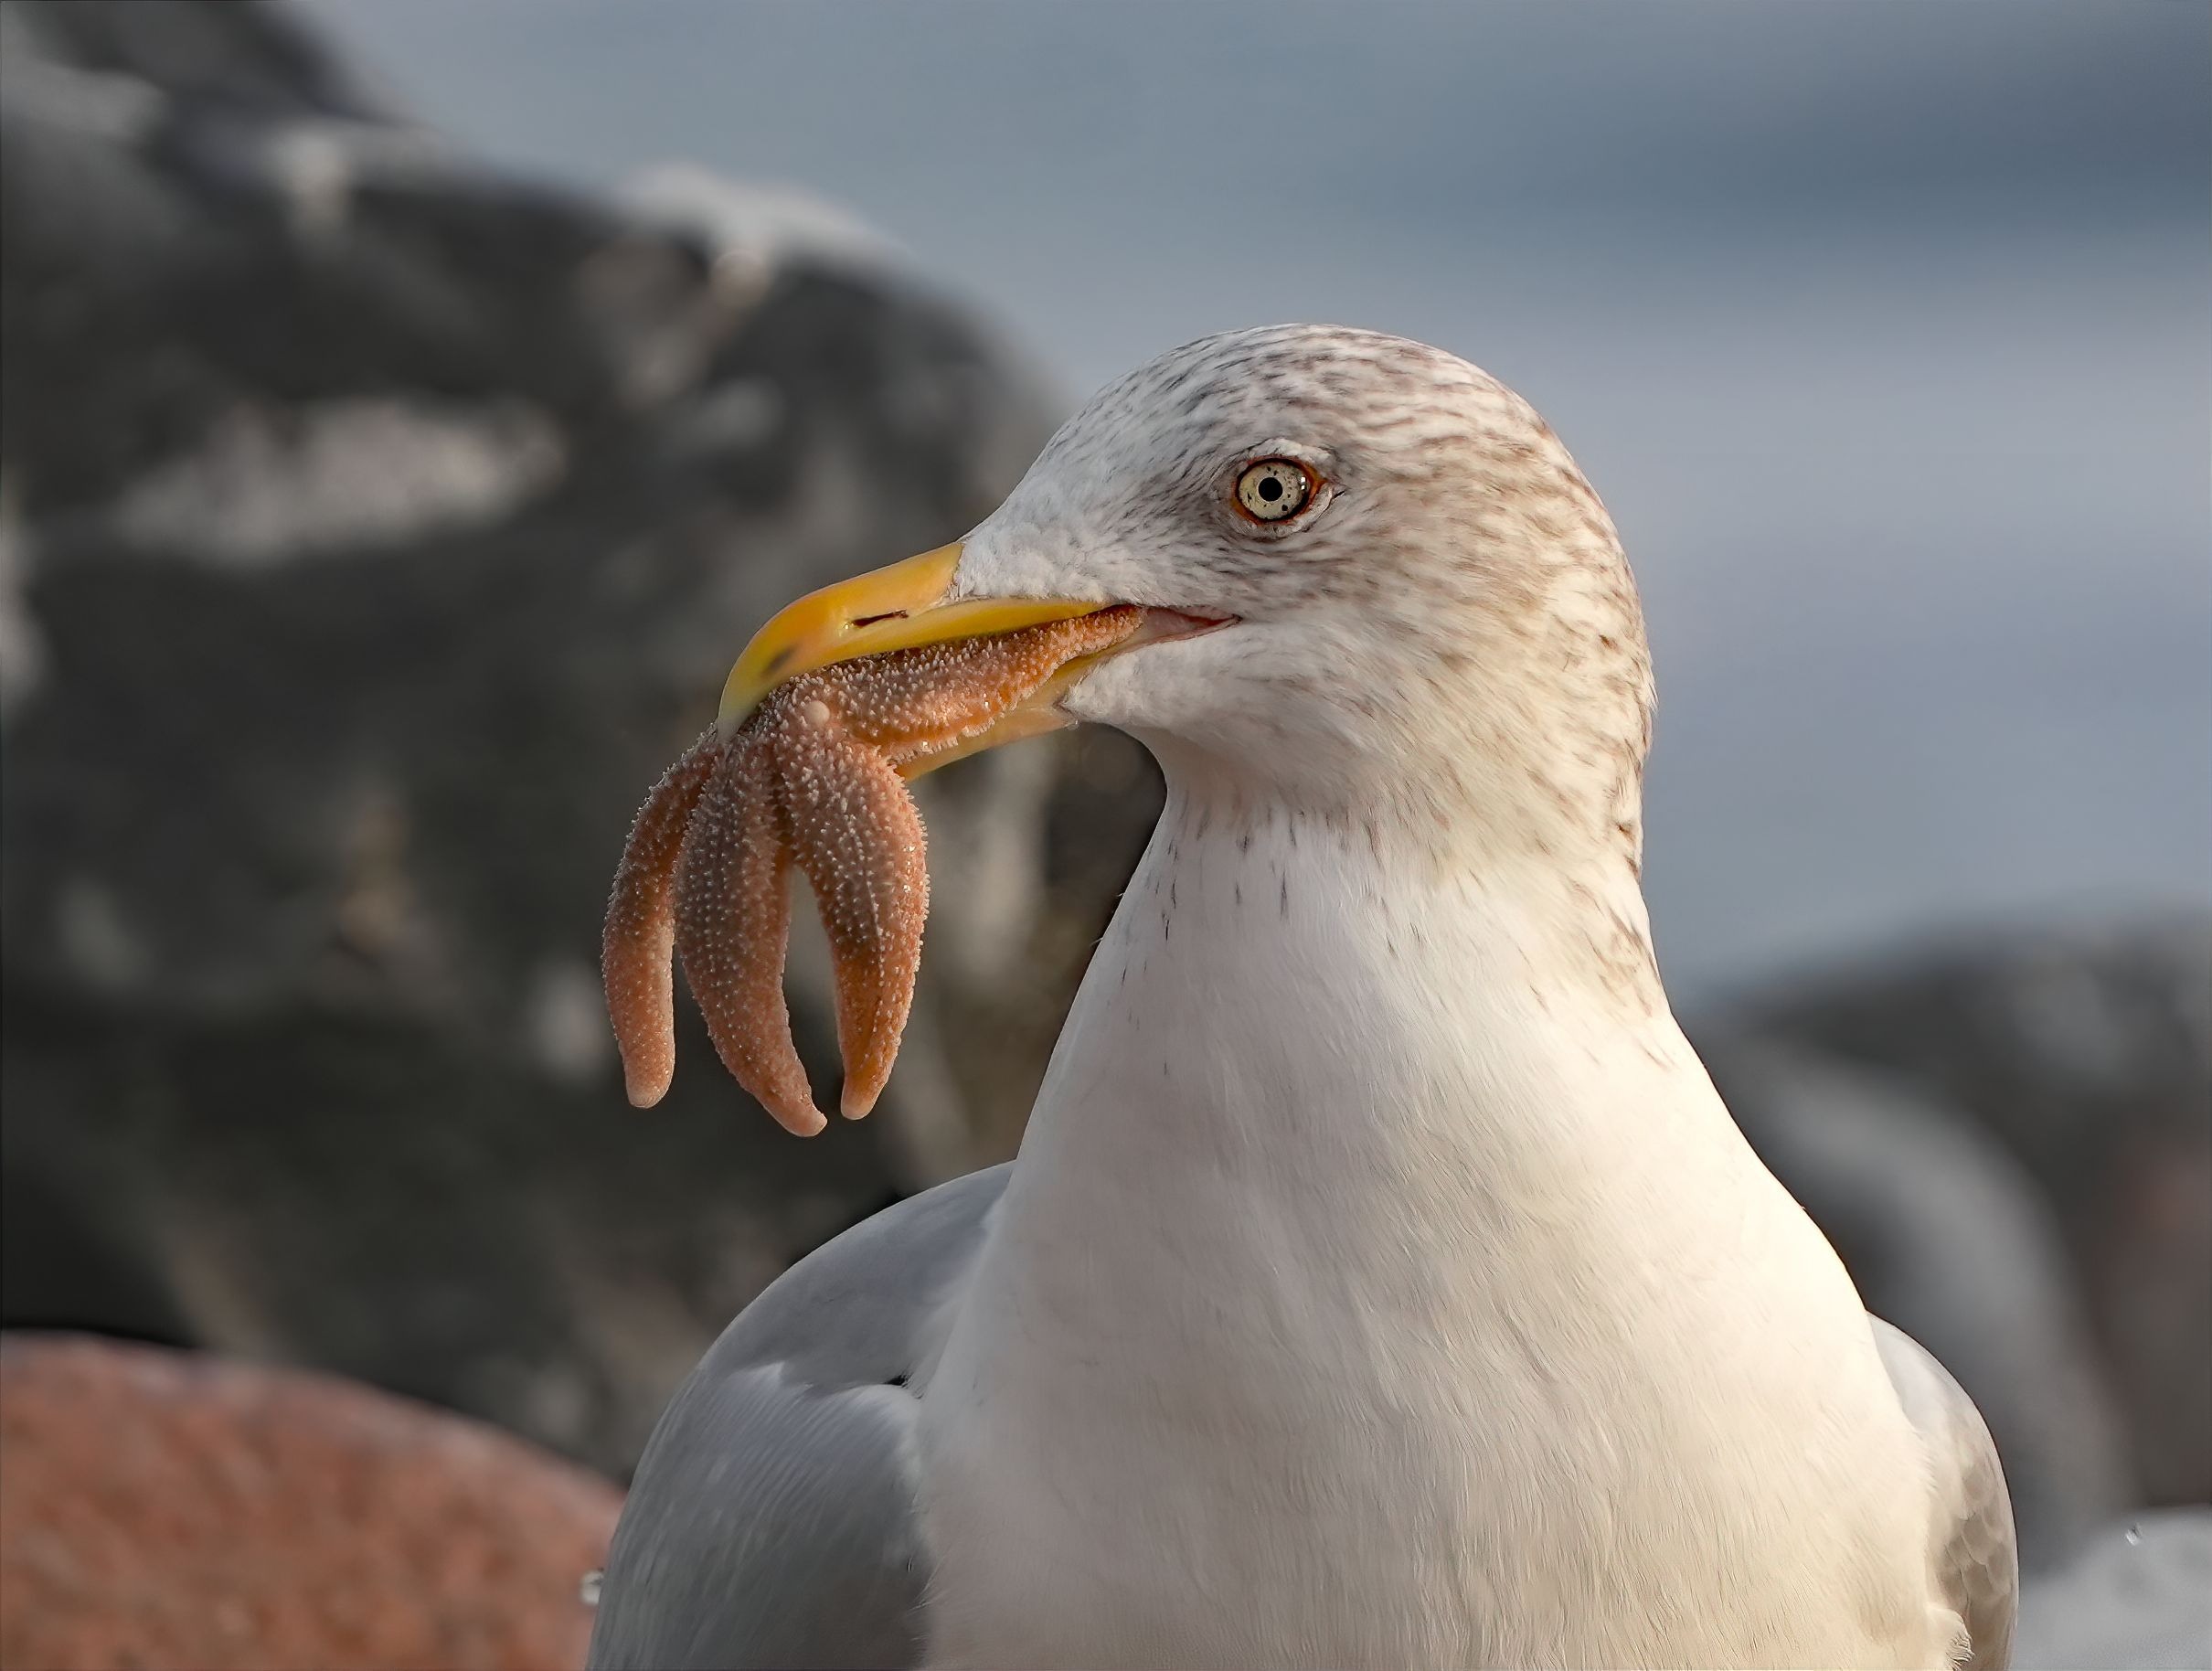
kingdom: Animalia
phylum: Chordata
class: Aves
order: Charadriiformes
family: Laridae
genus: Larus
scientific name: Larus argentatus
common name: Sølvmåge
